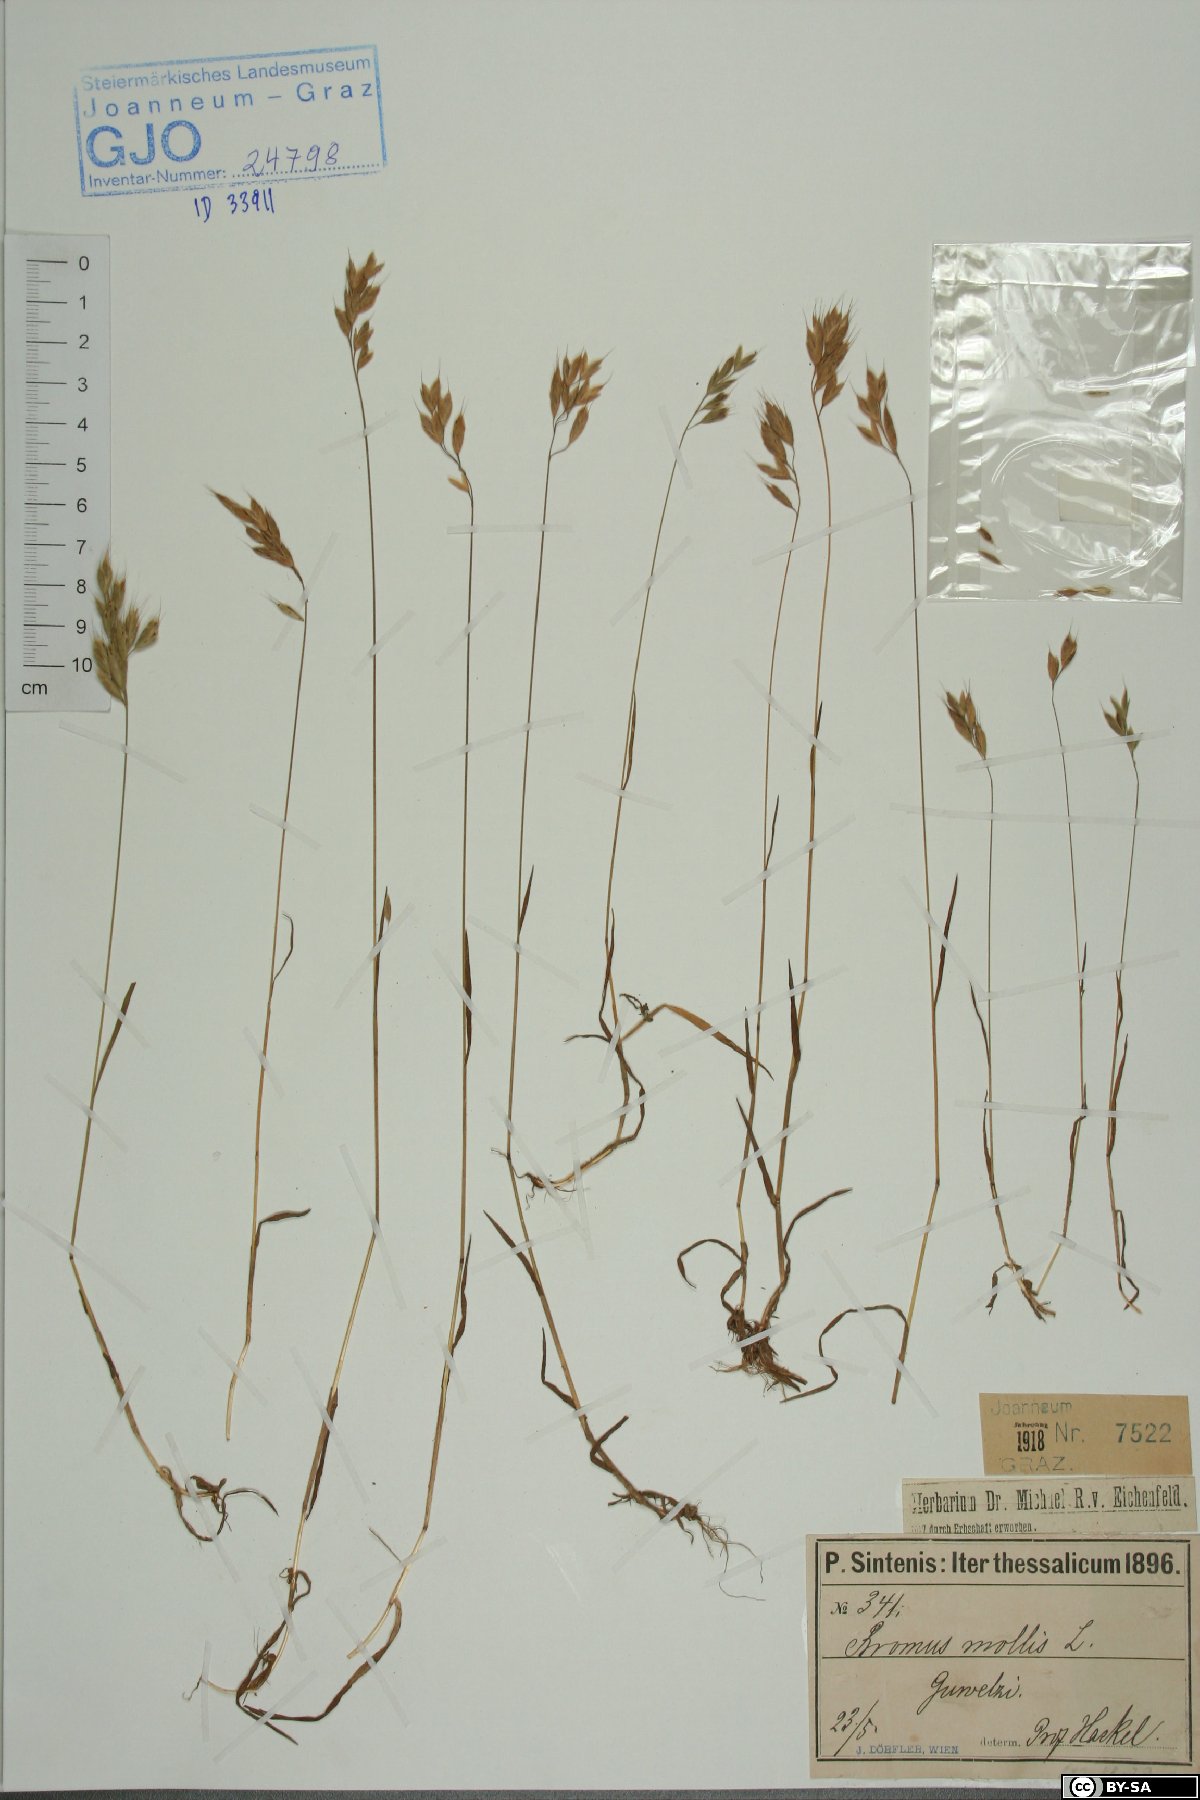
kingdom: Plantae
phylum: Tracheophyta
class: Liliopsida
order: Poales
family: Poaceae
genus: Bromus
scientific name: Bromus hordeaceus
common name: Soft brome
